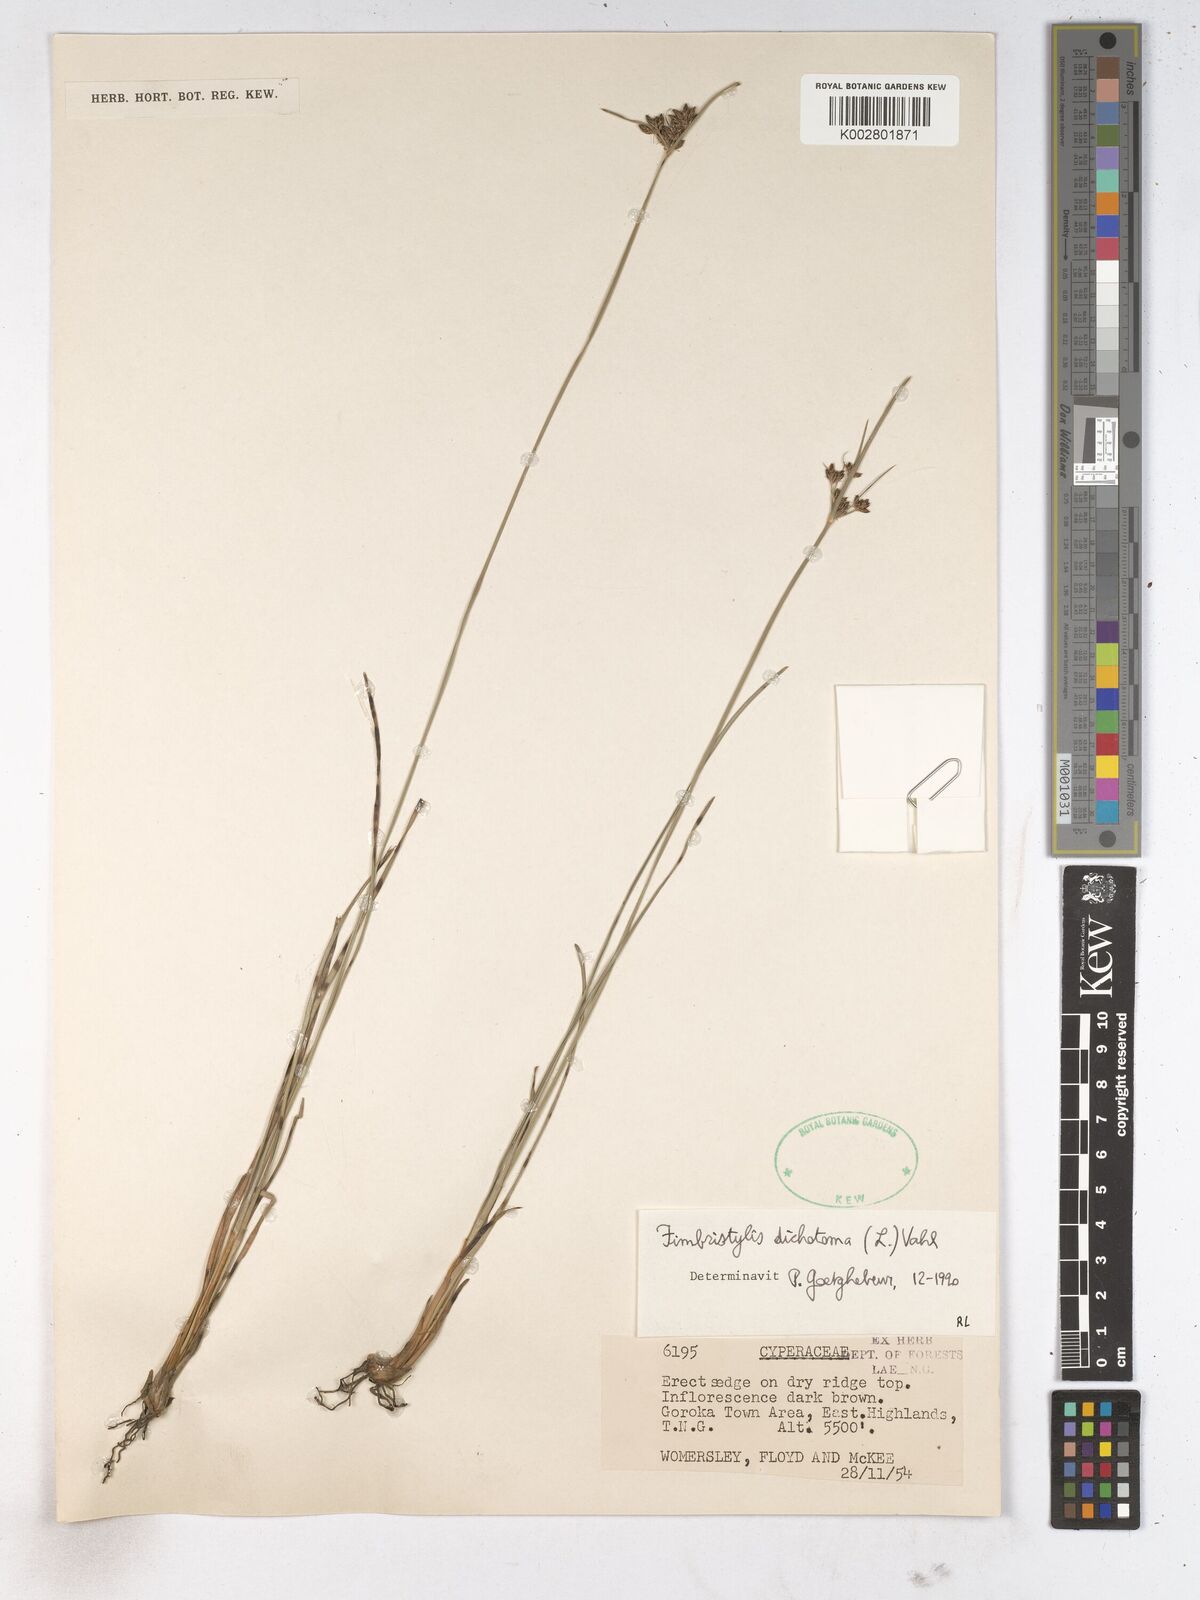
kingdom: Plantae
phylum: Tracheophyta
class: Liliopsida
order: Poales
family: Cyperaceae
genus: Fimbristylis
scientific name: Fimbristylis dichotoma
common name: Forked fimbry
